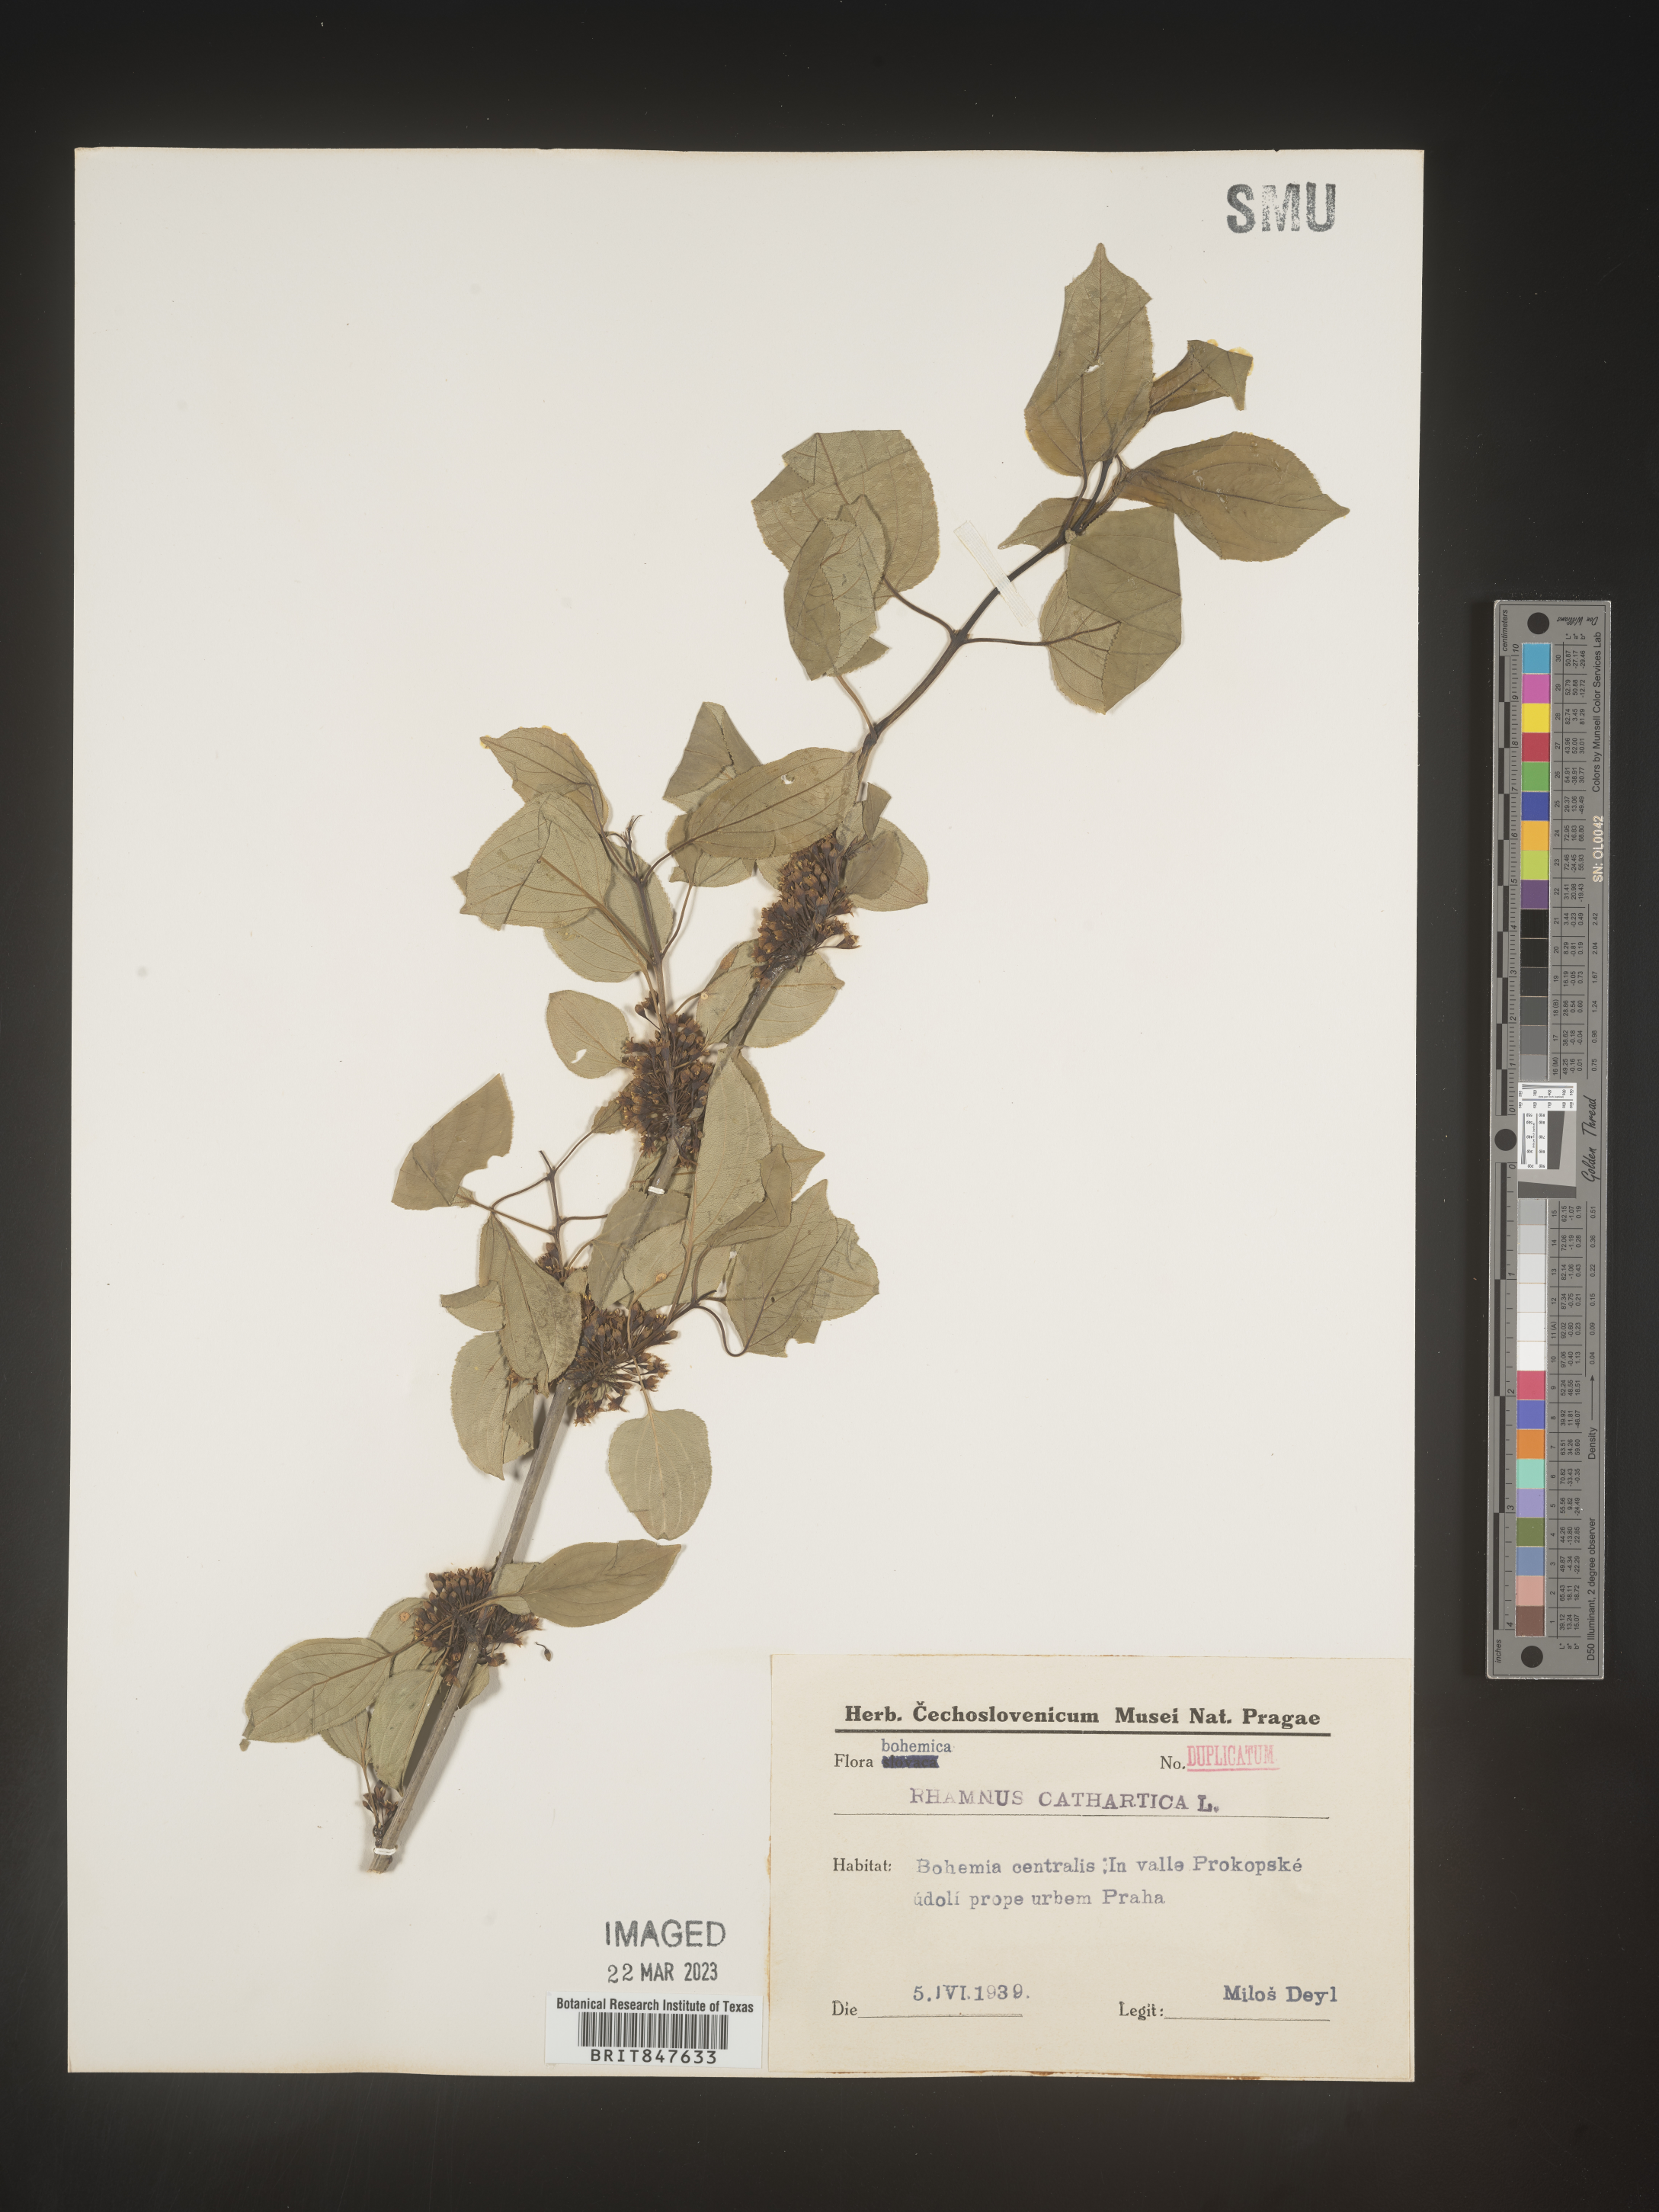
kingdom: Plantae
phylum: Tracheophyta
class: Magnoliopsida
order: Rosales
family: Rhamnaceae
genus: Rhamnus
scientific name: Rhamnus cathartica
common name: Common buckthorn
